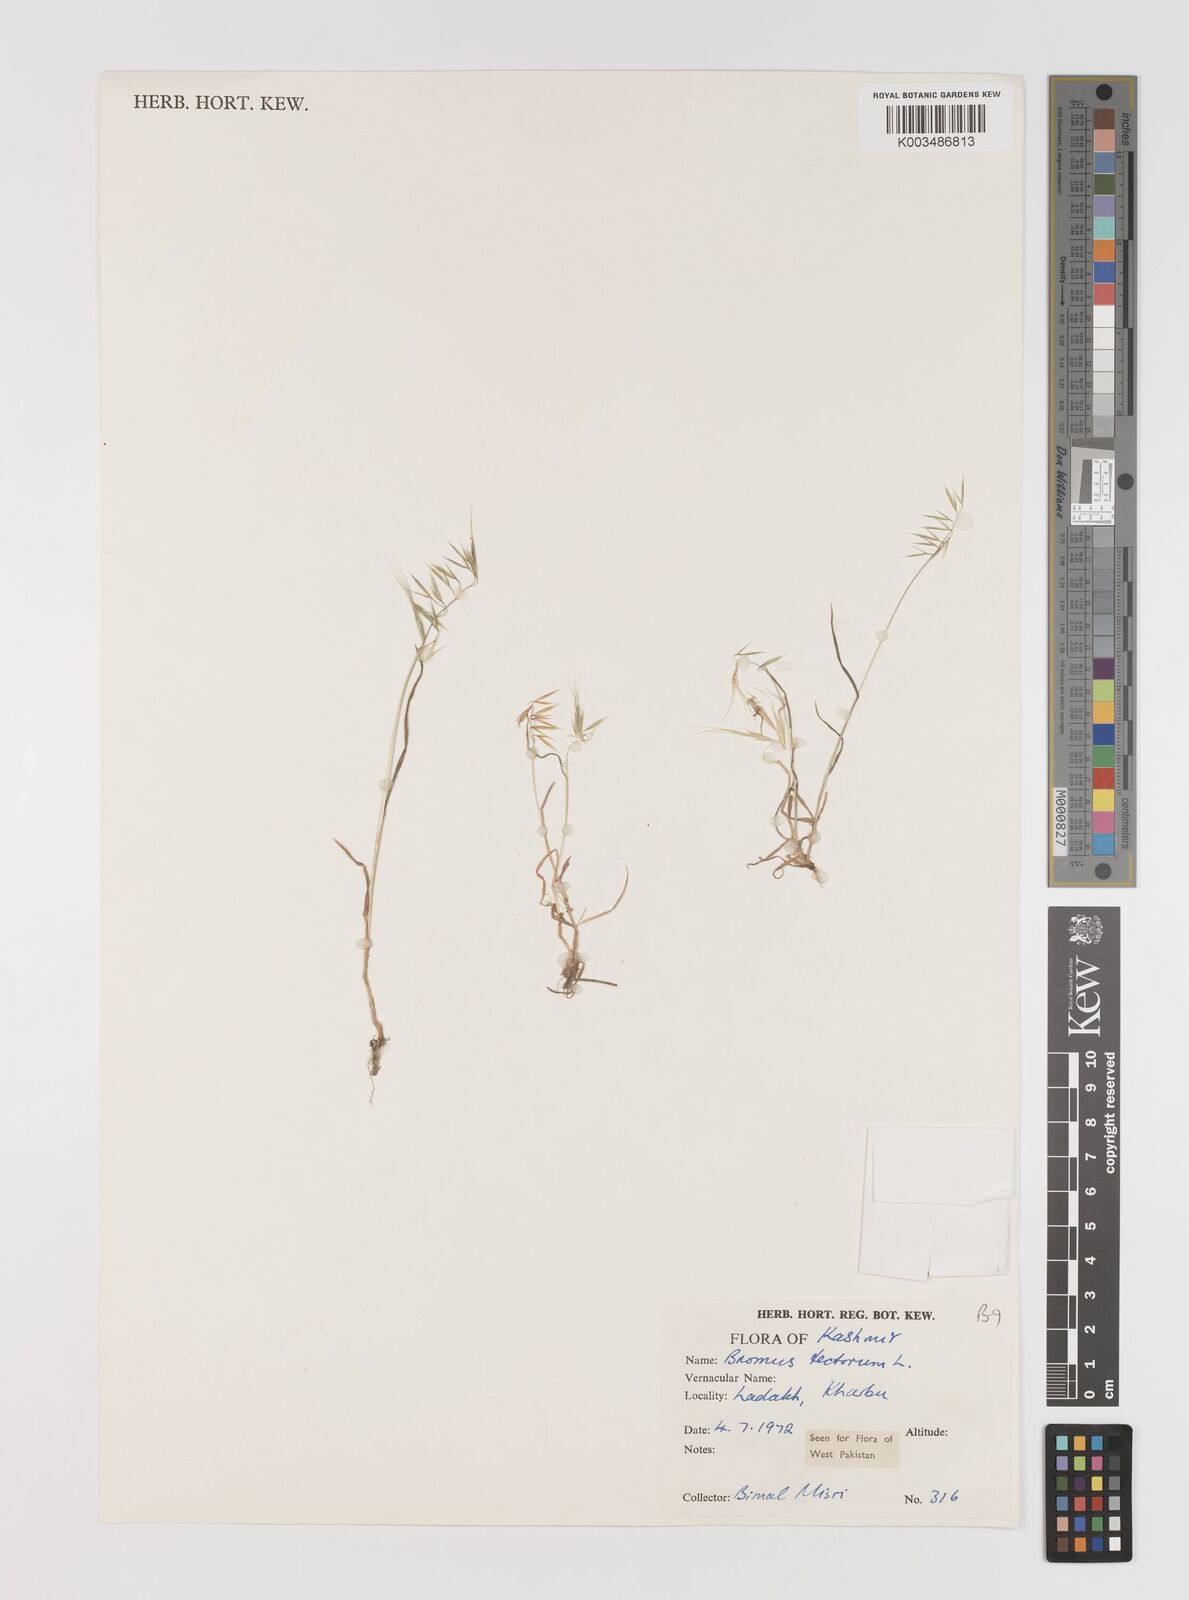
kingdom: Plantae
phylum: Tracheophyta
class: Liliopsida
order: Poales
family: Poaceae
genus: Bromus
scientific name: Bromus tectorum
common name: Cheatgrass
